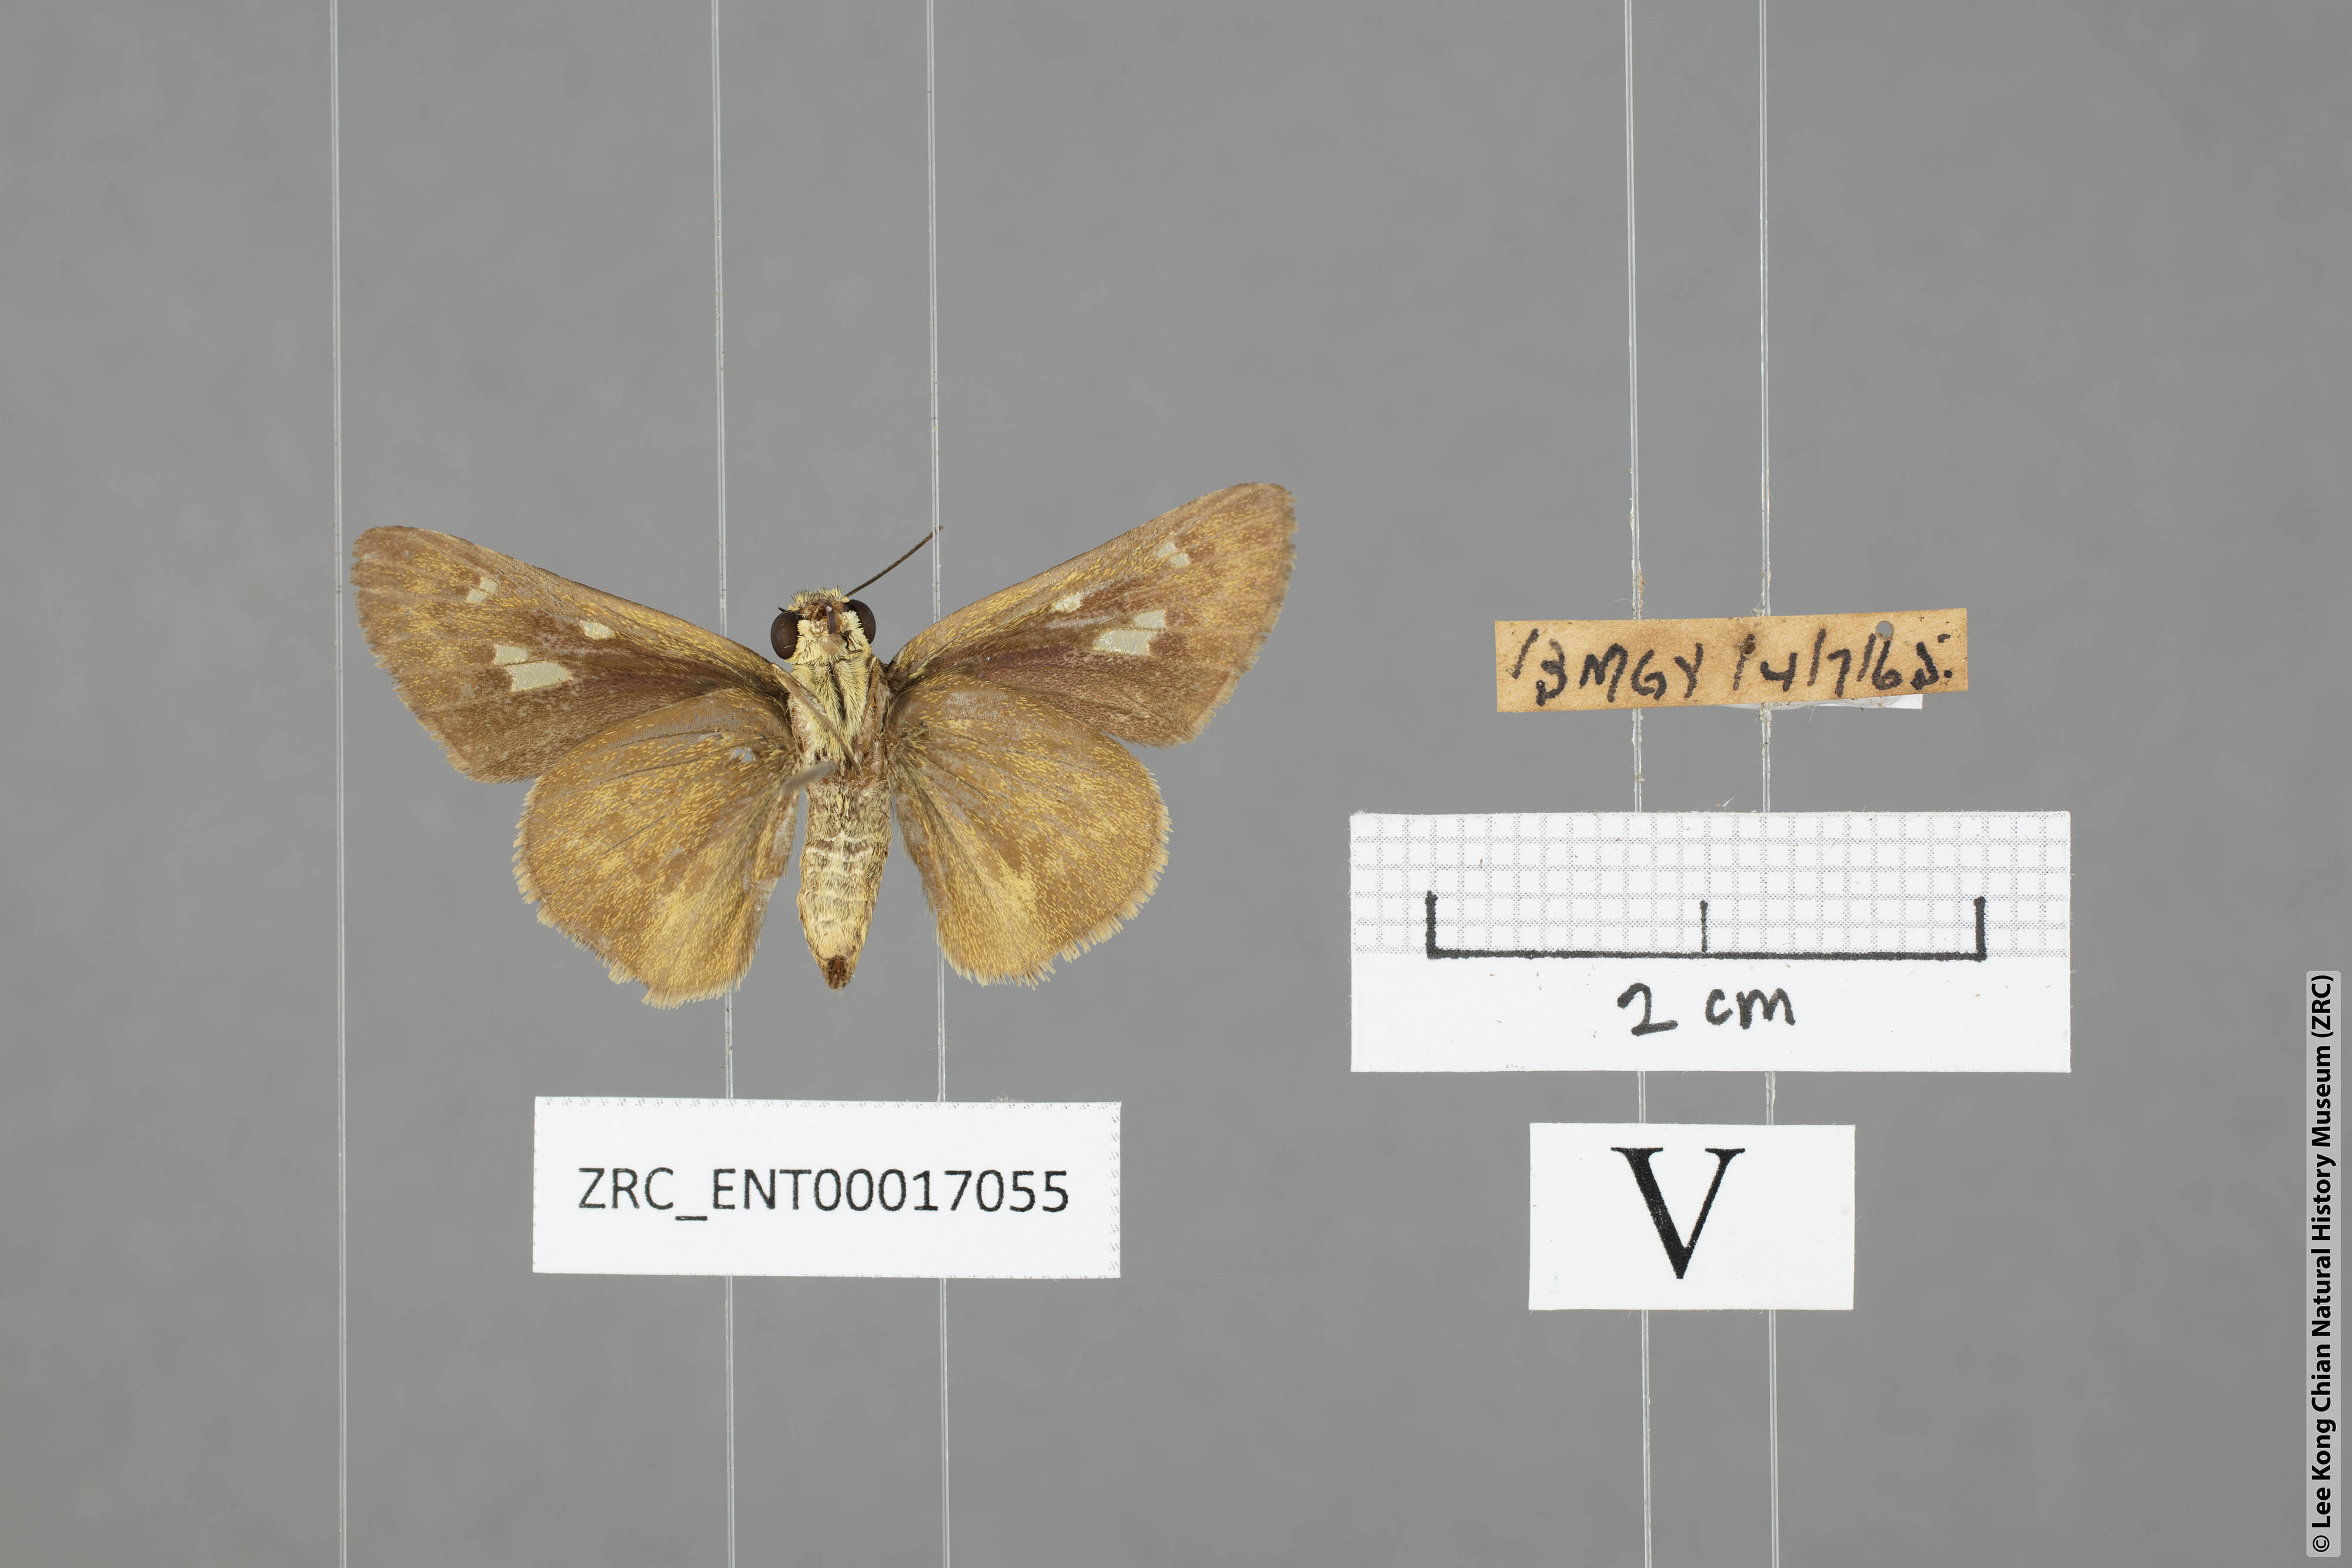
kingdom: Animalia
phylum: Arthropoda
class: Insecta
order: Lepidoptera
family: Hesperiidae
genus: Halpe
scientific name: Halpe sikkima
